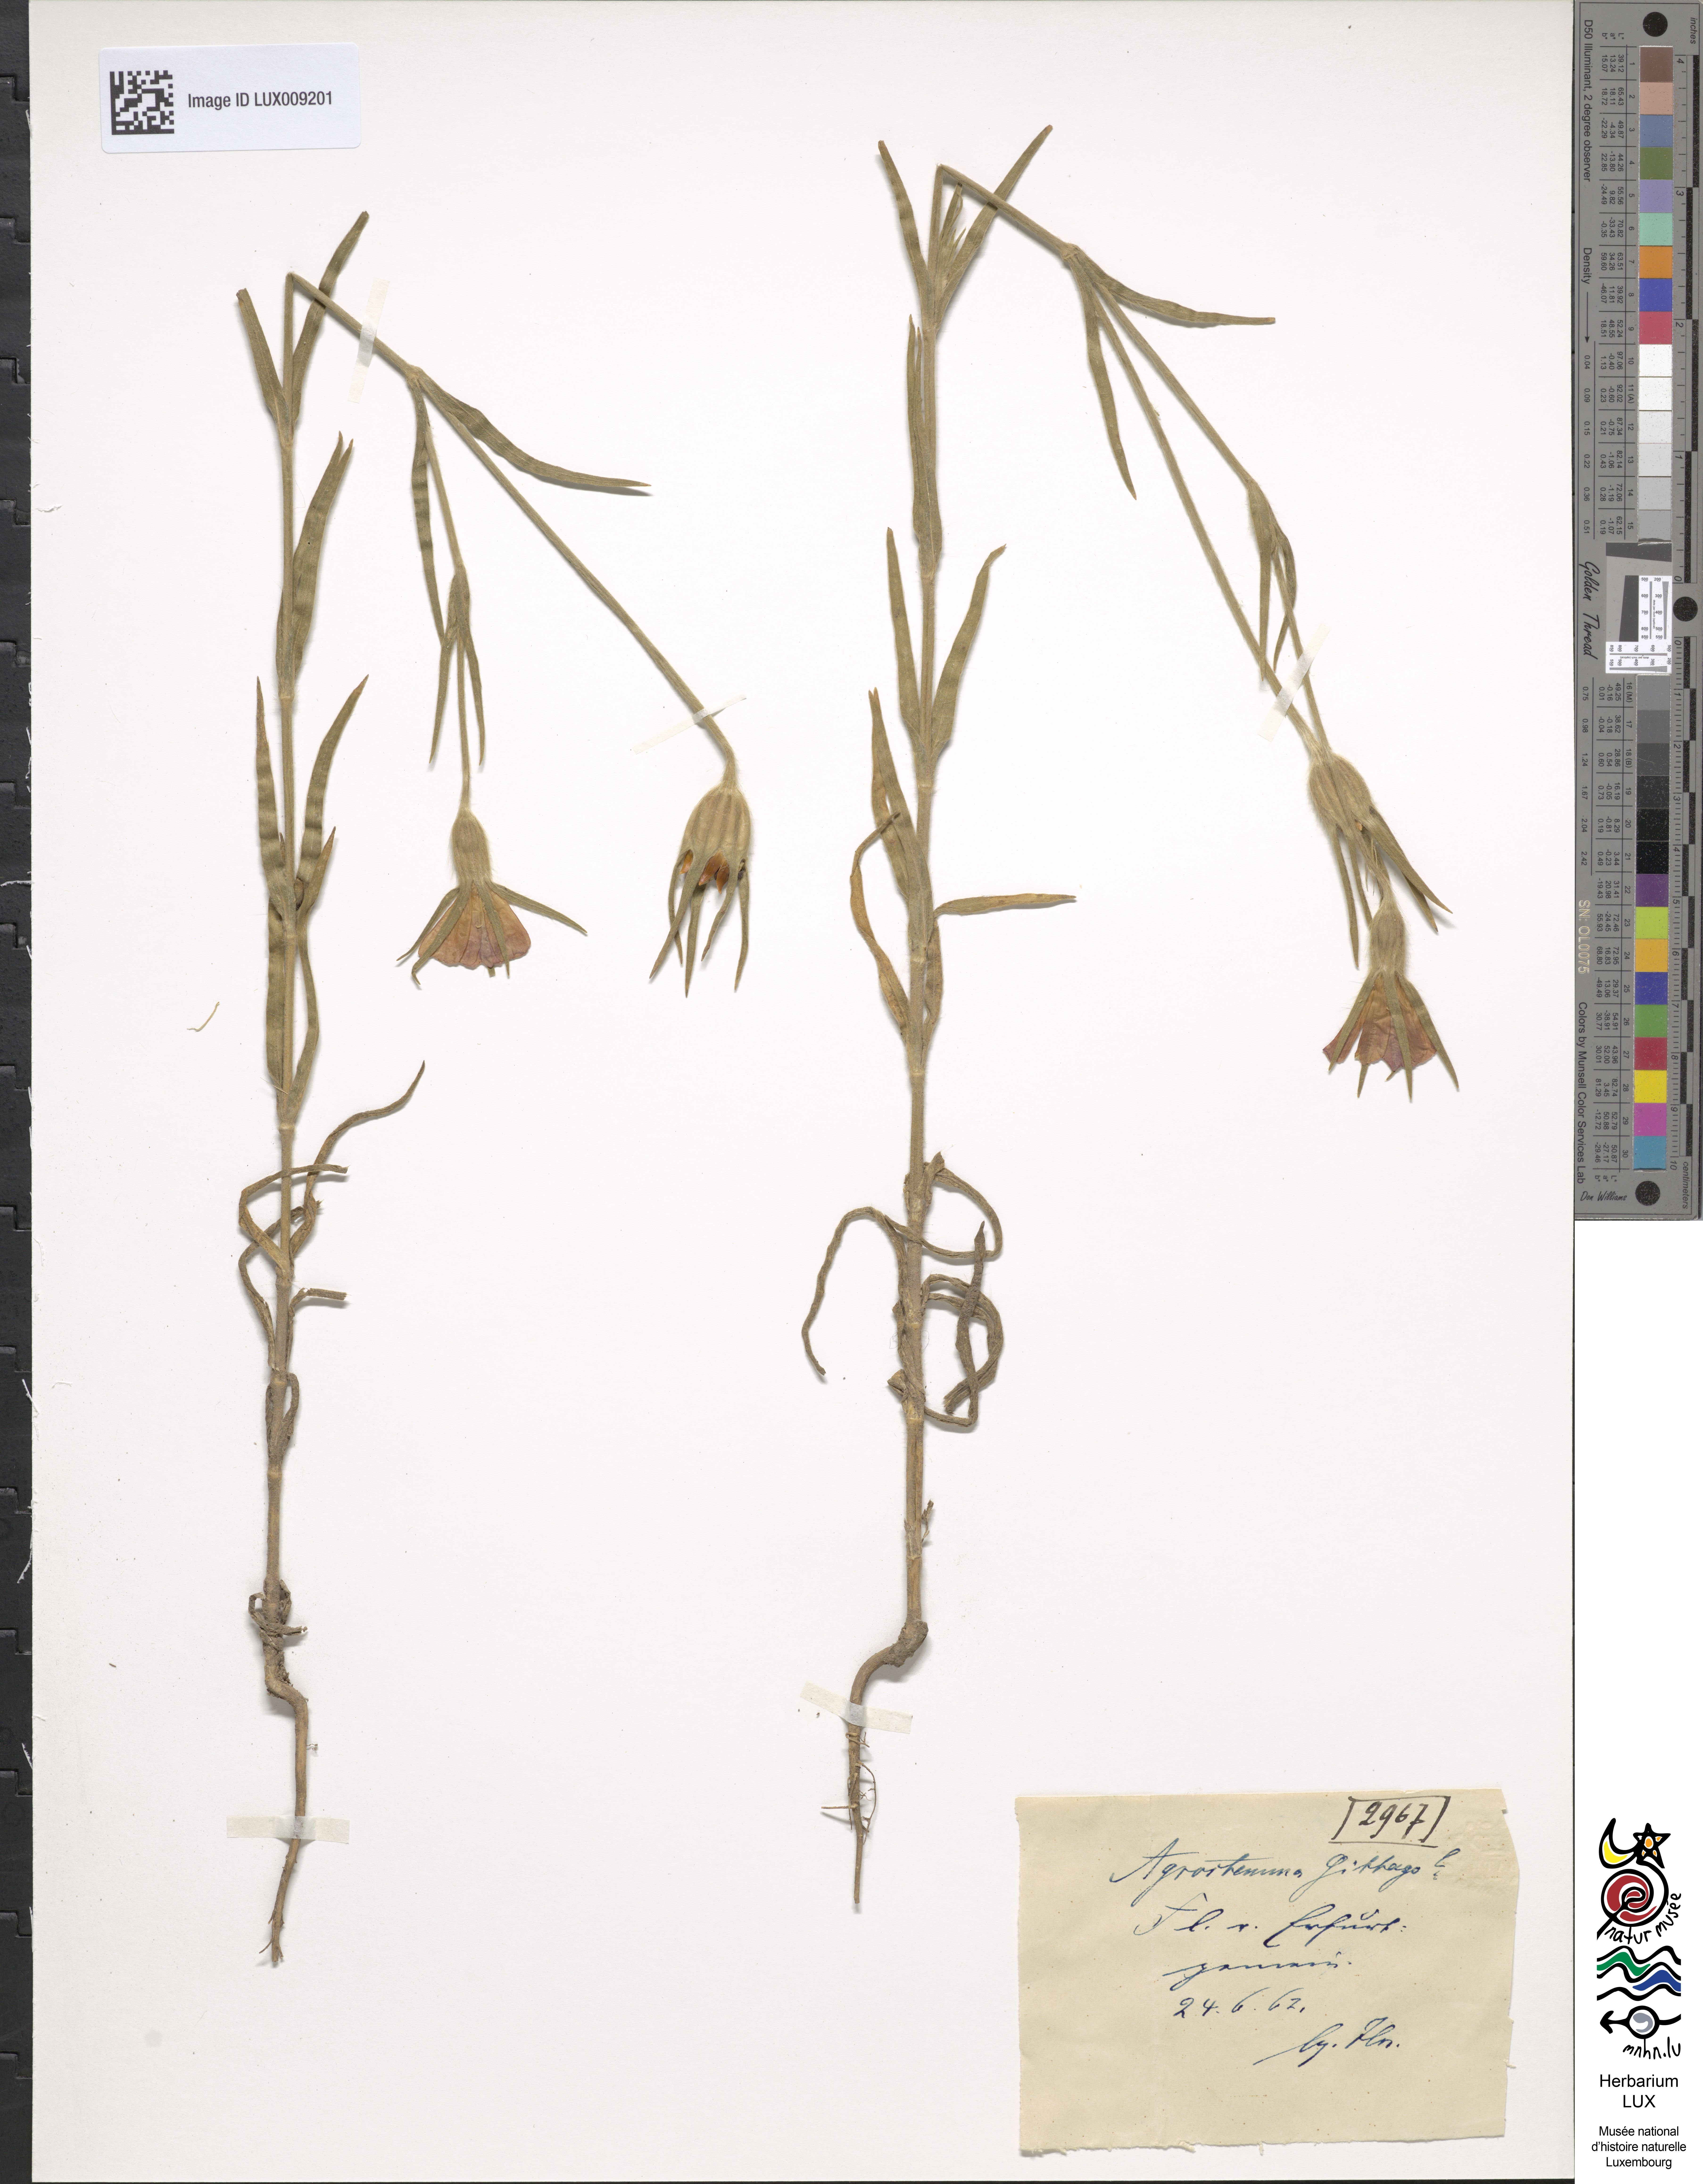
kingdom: Plantae
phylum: Tracheophyta
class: Magnoliopsida
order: Caryophyllales
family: Caryophyllaceae
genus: Agrostemma
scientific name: Agrostemma githago
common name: Common corncockle
